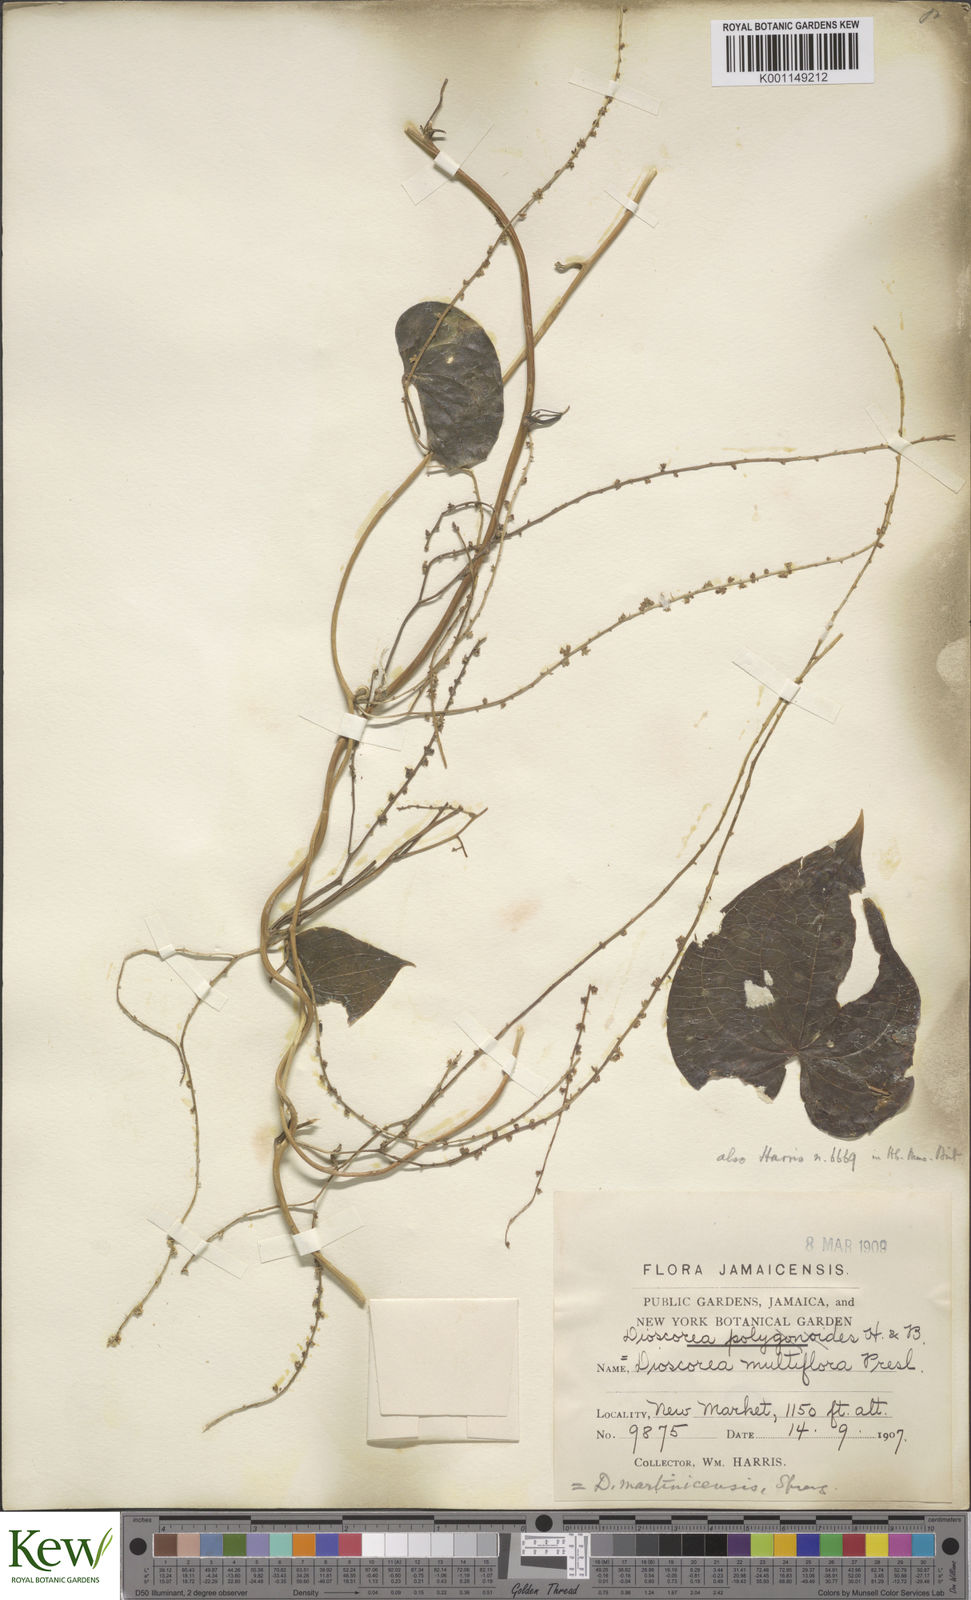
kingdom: Plantae
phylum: Tracheophyta
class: Liliopsida
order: Dioscoreales
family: Dioscoreaceae
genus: Dioscorea
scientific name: Dioscorea
